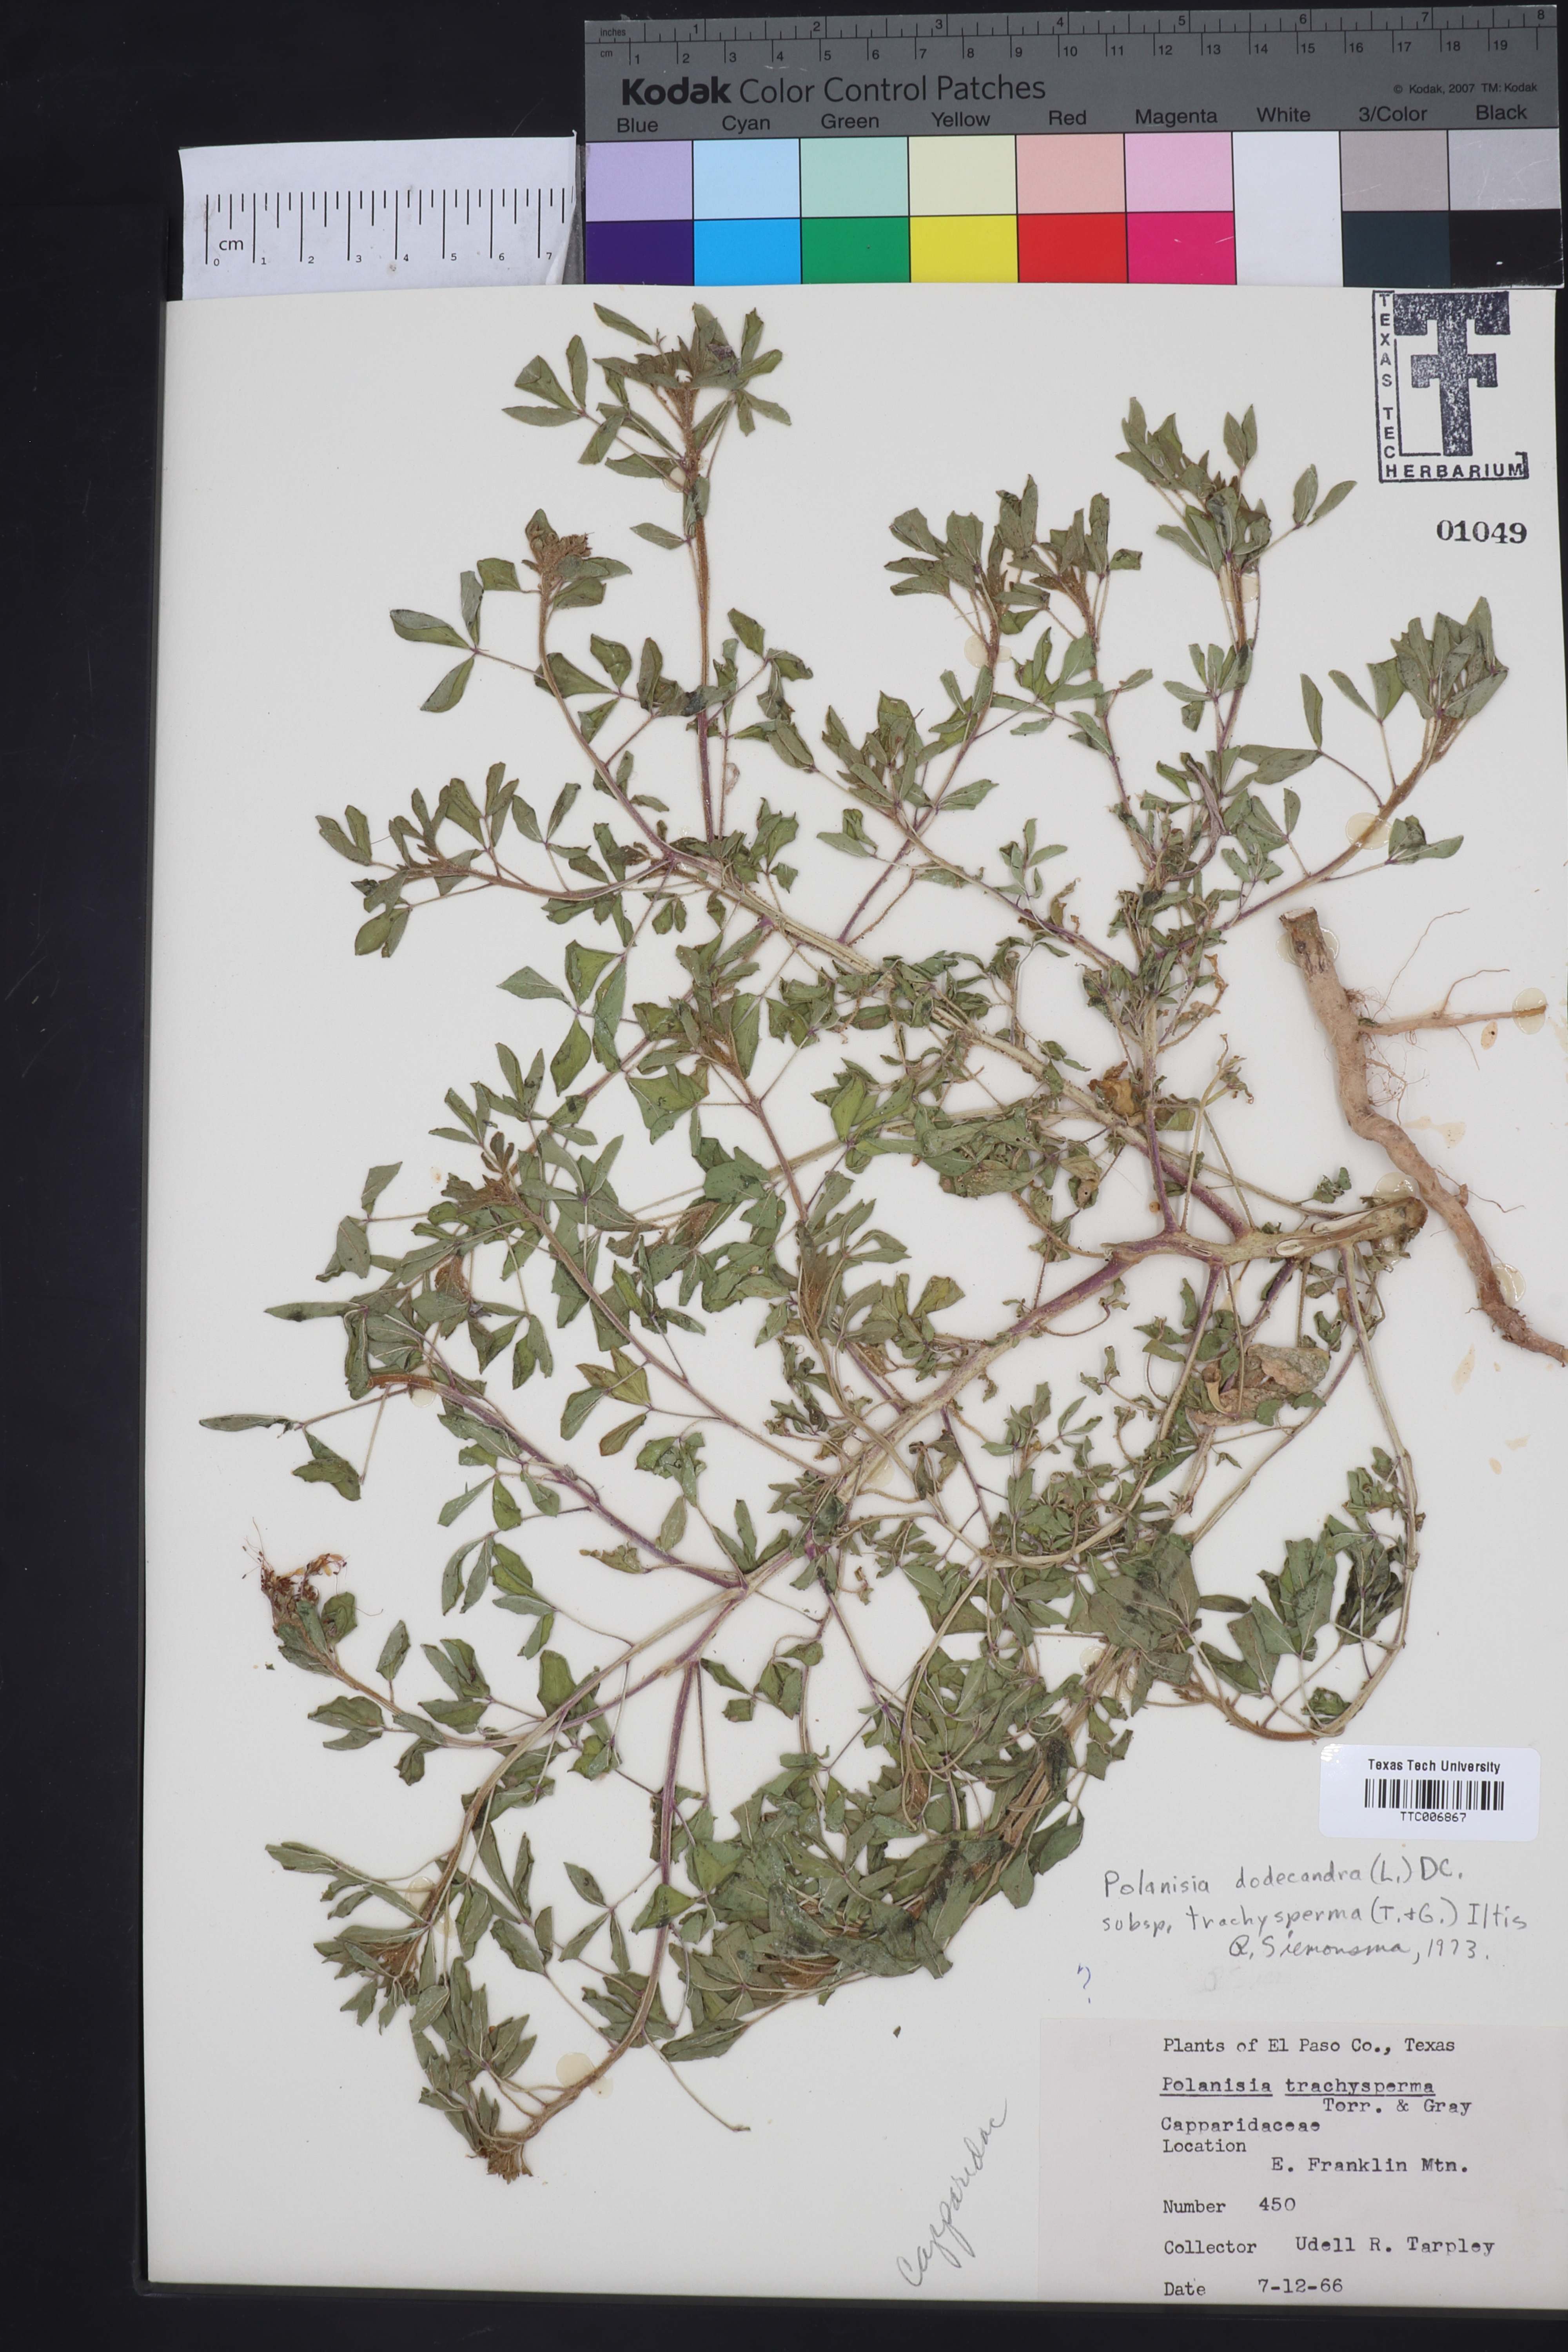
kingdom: Plantae
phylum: Tracheophyta
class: Magnoliopsida
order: Brassicales
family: Cleomaceae
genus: Polanisia
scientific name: Polanisia trachysperma
